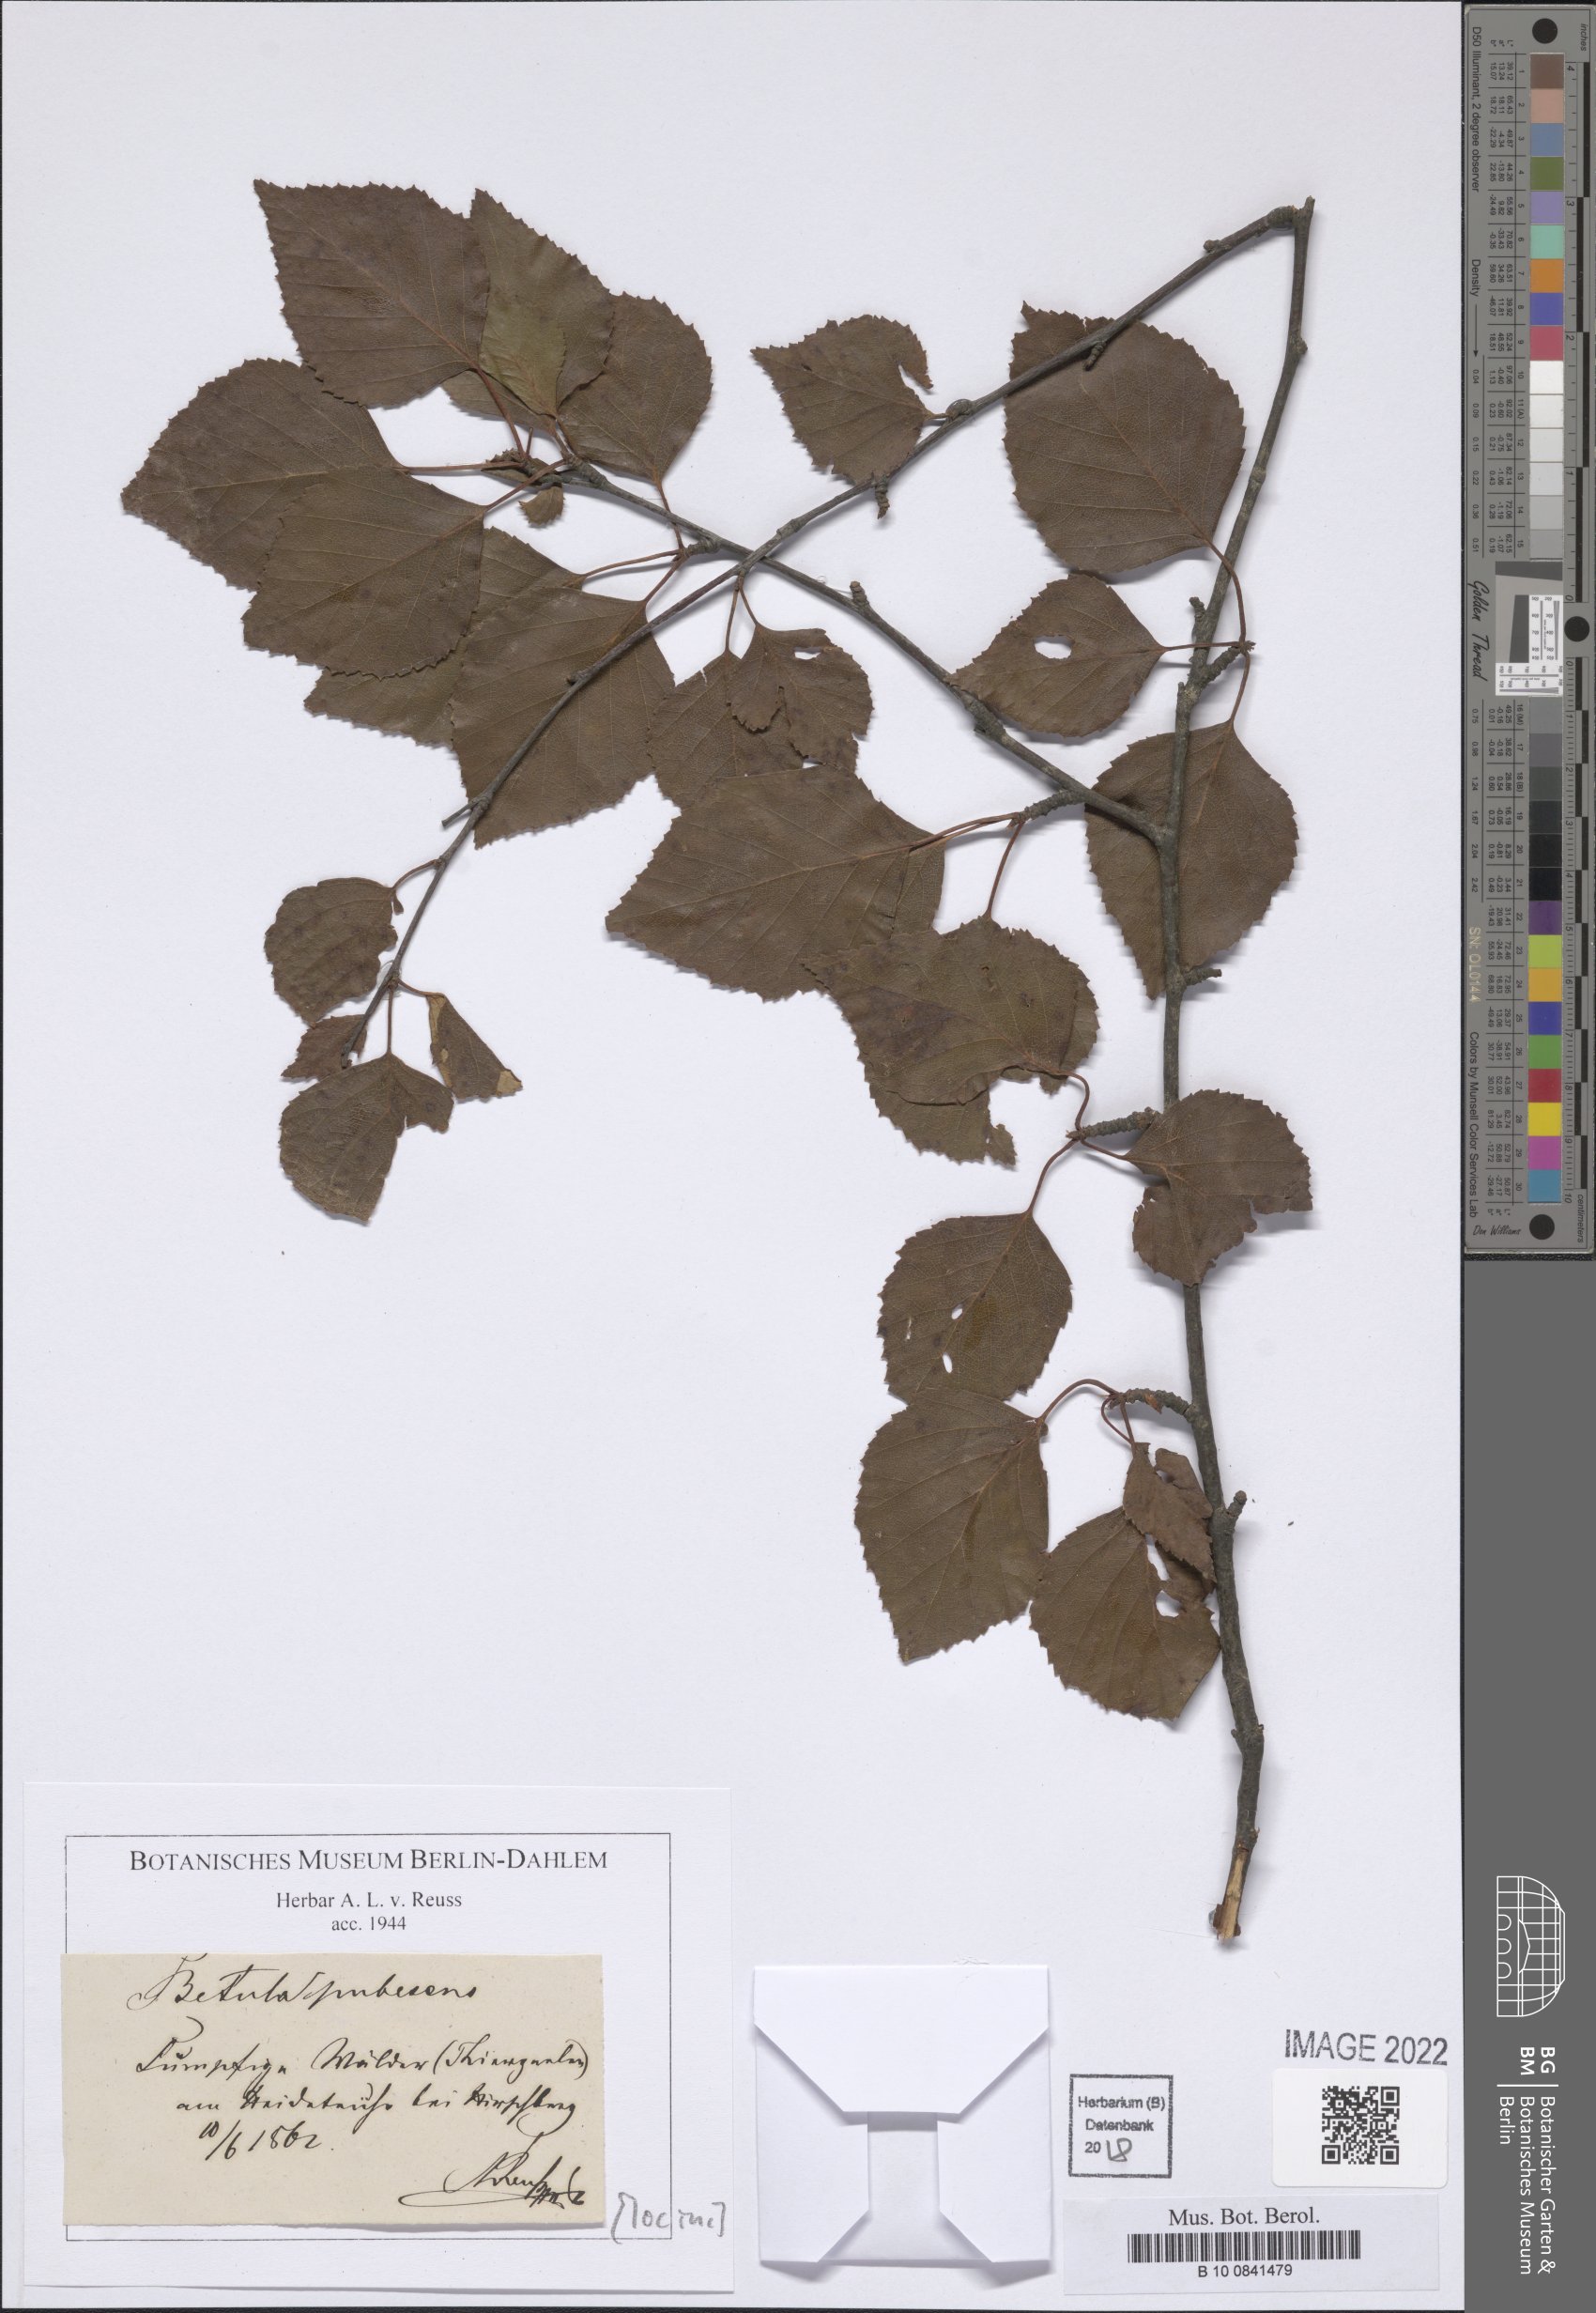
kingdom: Plantae
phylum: Tracheophyta
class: Magnoliopsida
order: Fagales
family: Betulaceae
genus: Betula
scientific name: Betula pubescens
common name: Downy birch
